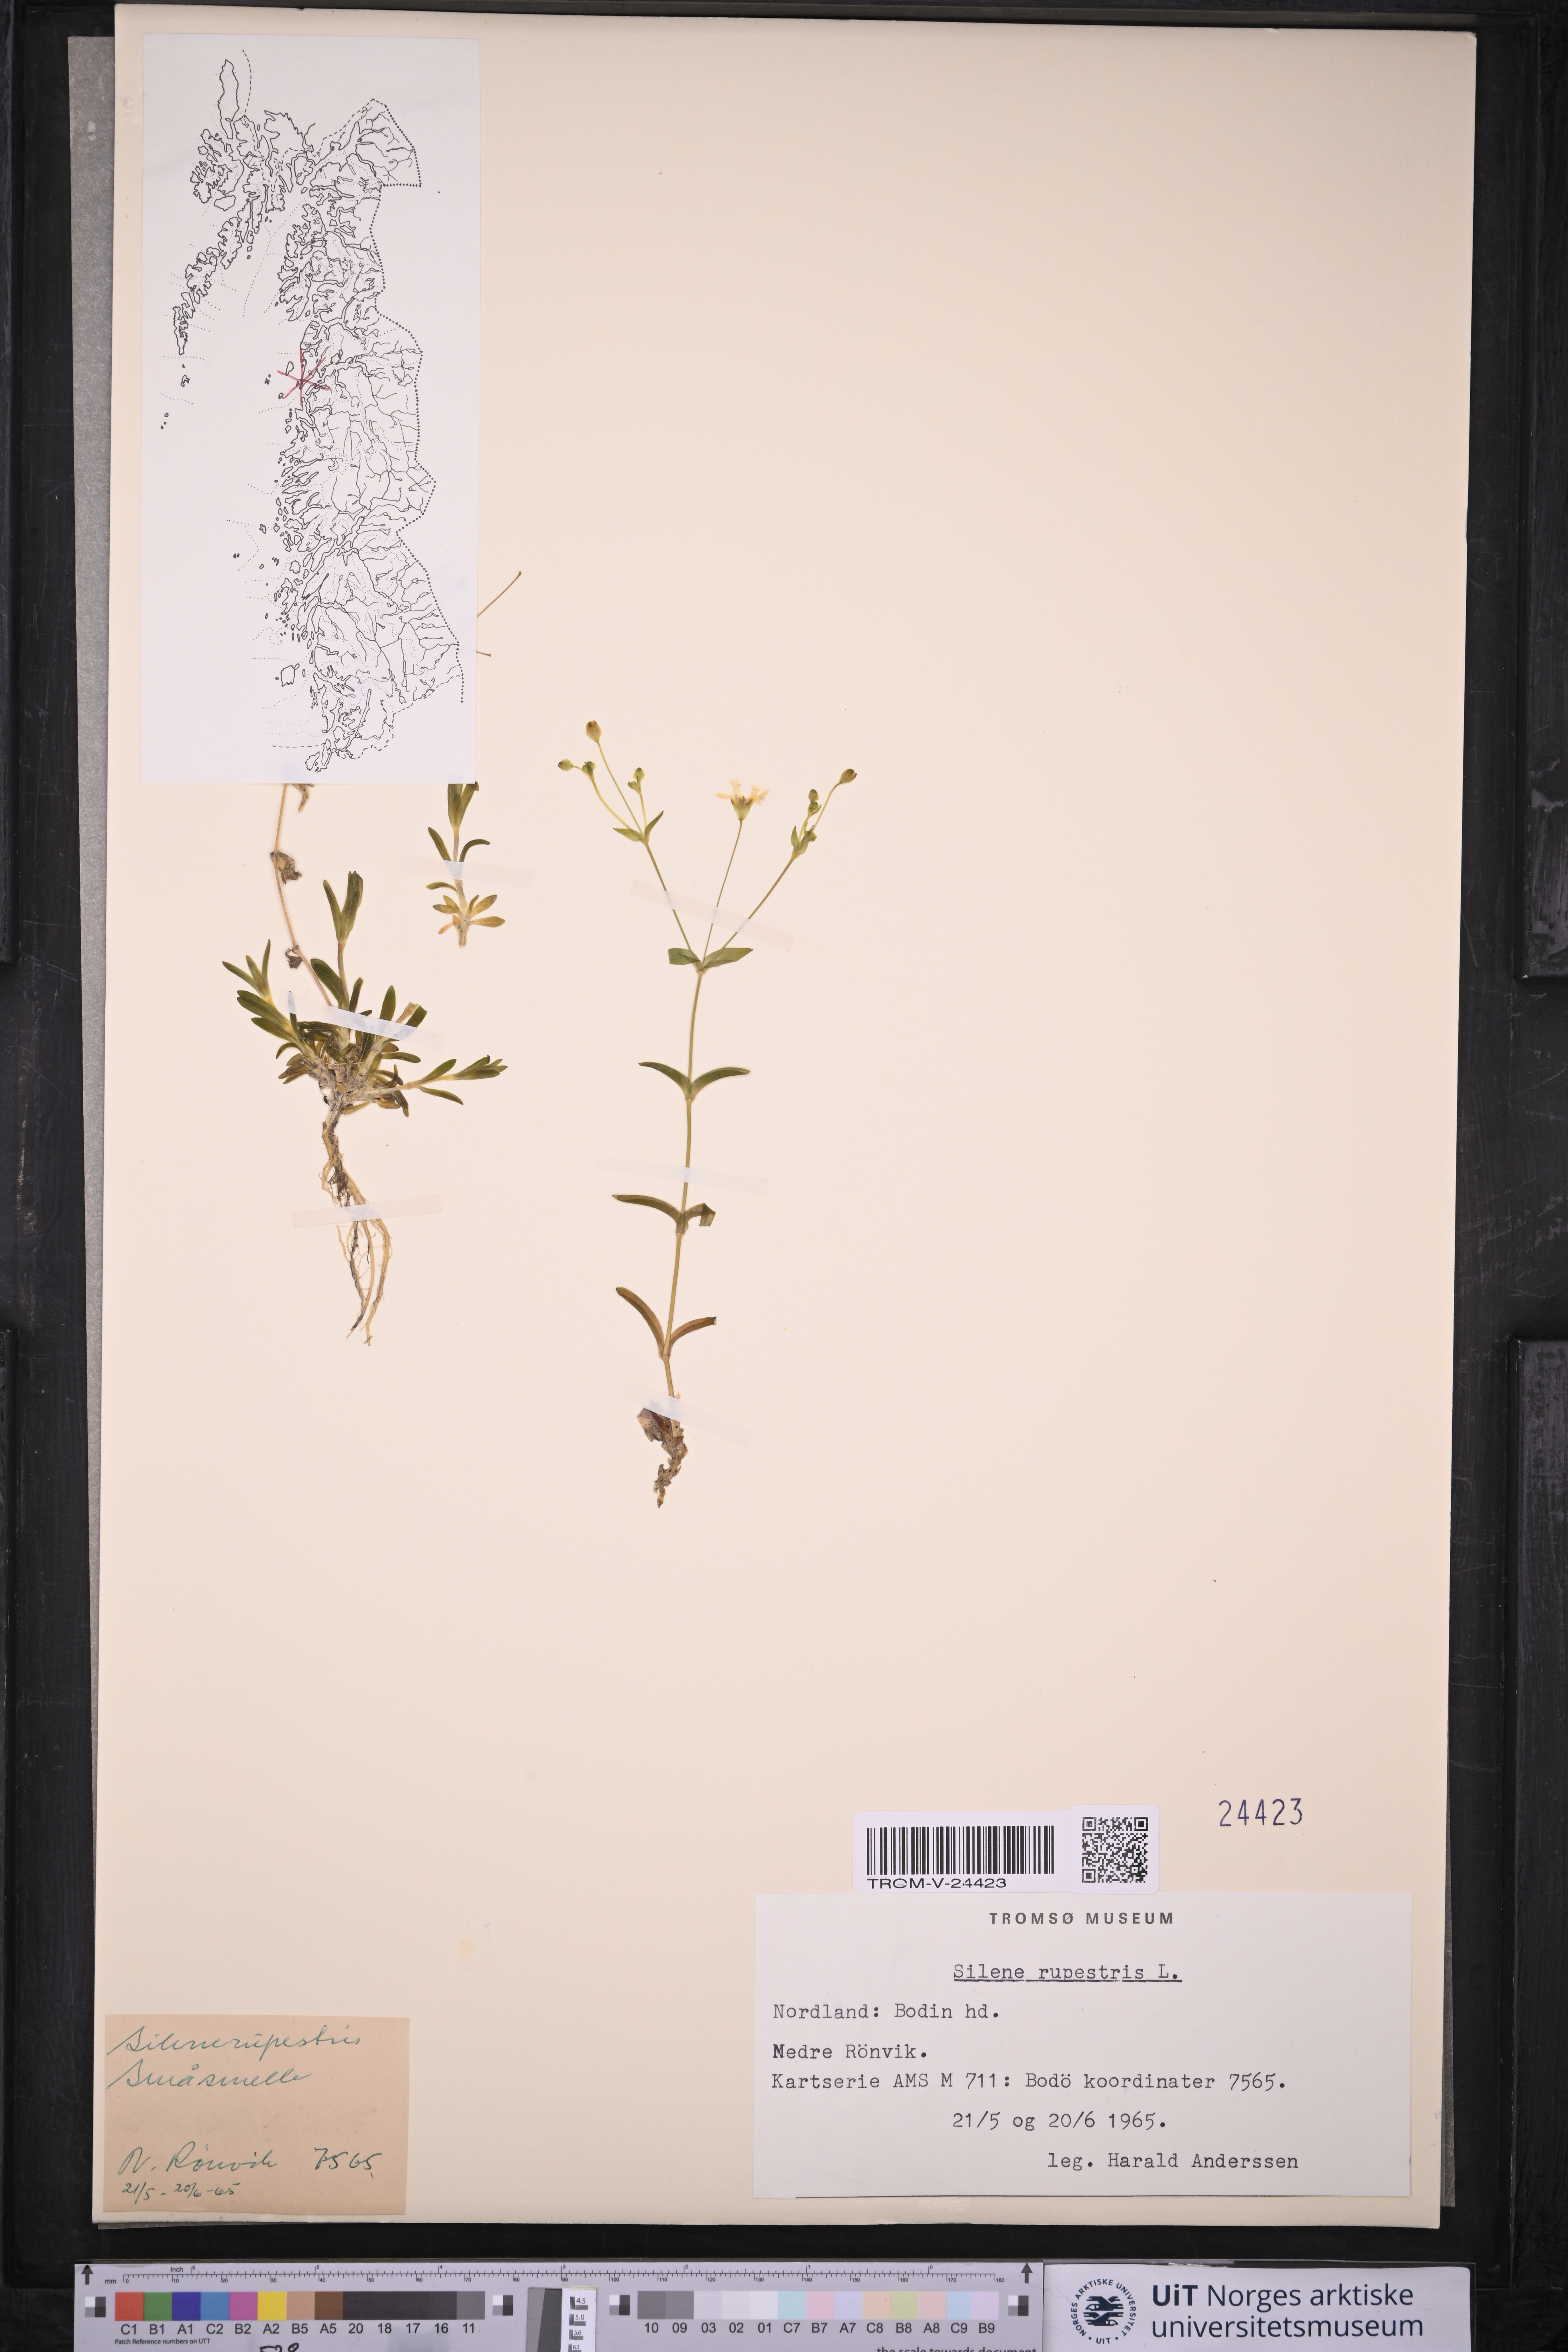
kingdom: Plantae
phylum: Tracheophyta
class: Magnoliopsida
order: Caryophyllales
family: Caryophyllaceae
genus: Atocion
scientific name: Atocion rupestre
